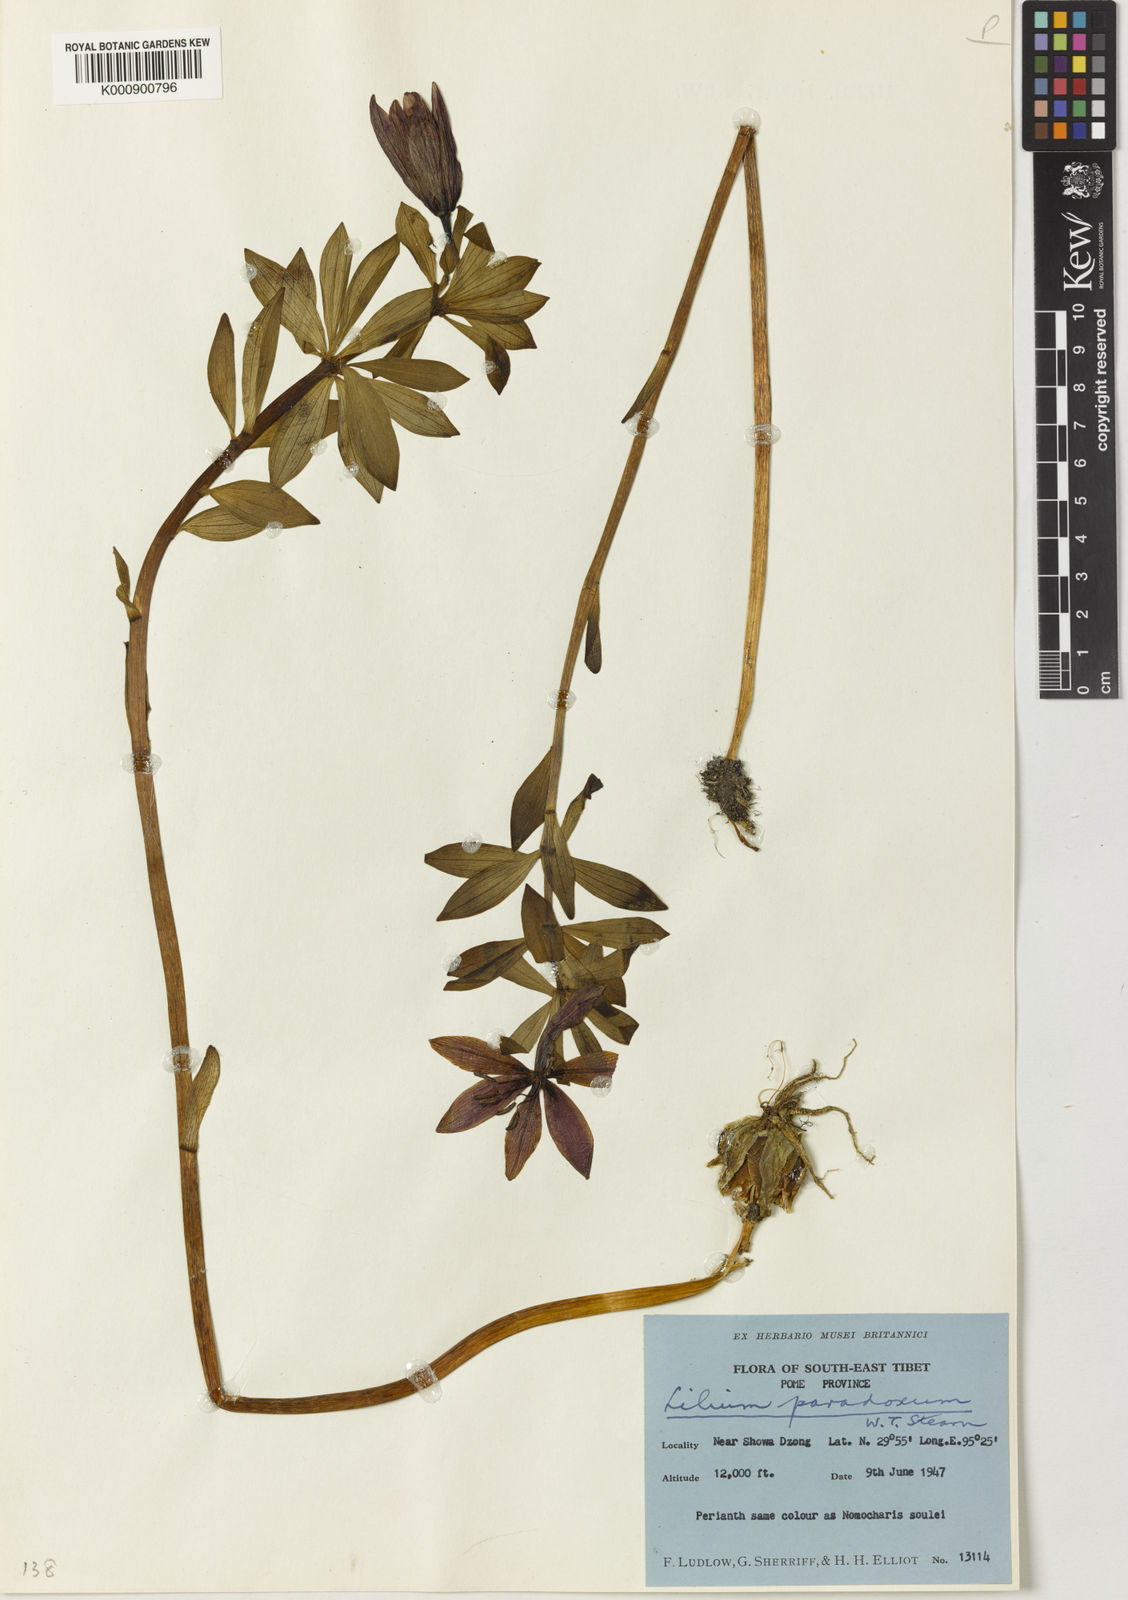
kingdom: Plantae
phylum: Tracheophyta
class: Liliopsida
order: Liliales
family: Liliaceae
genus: Lilium
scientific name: Lilium paradoxum
